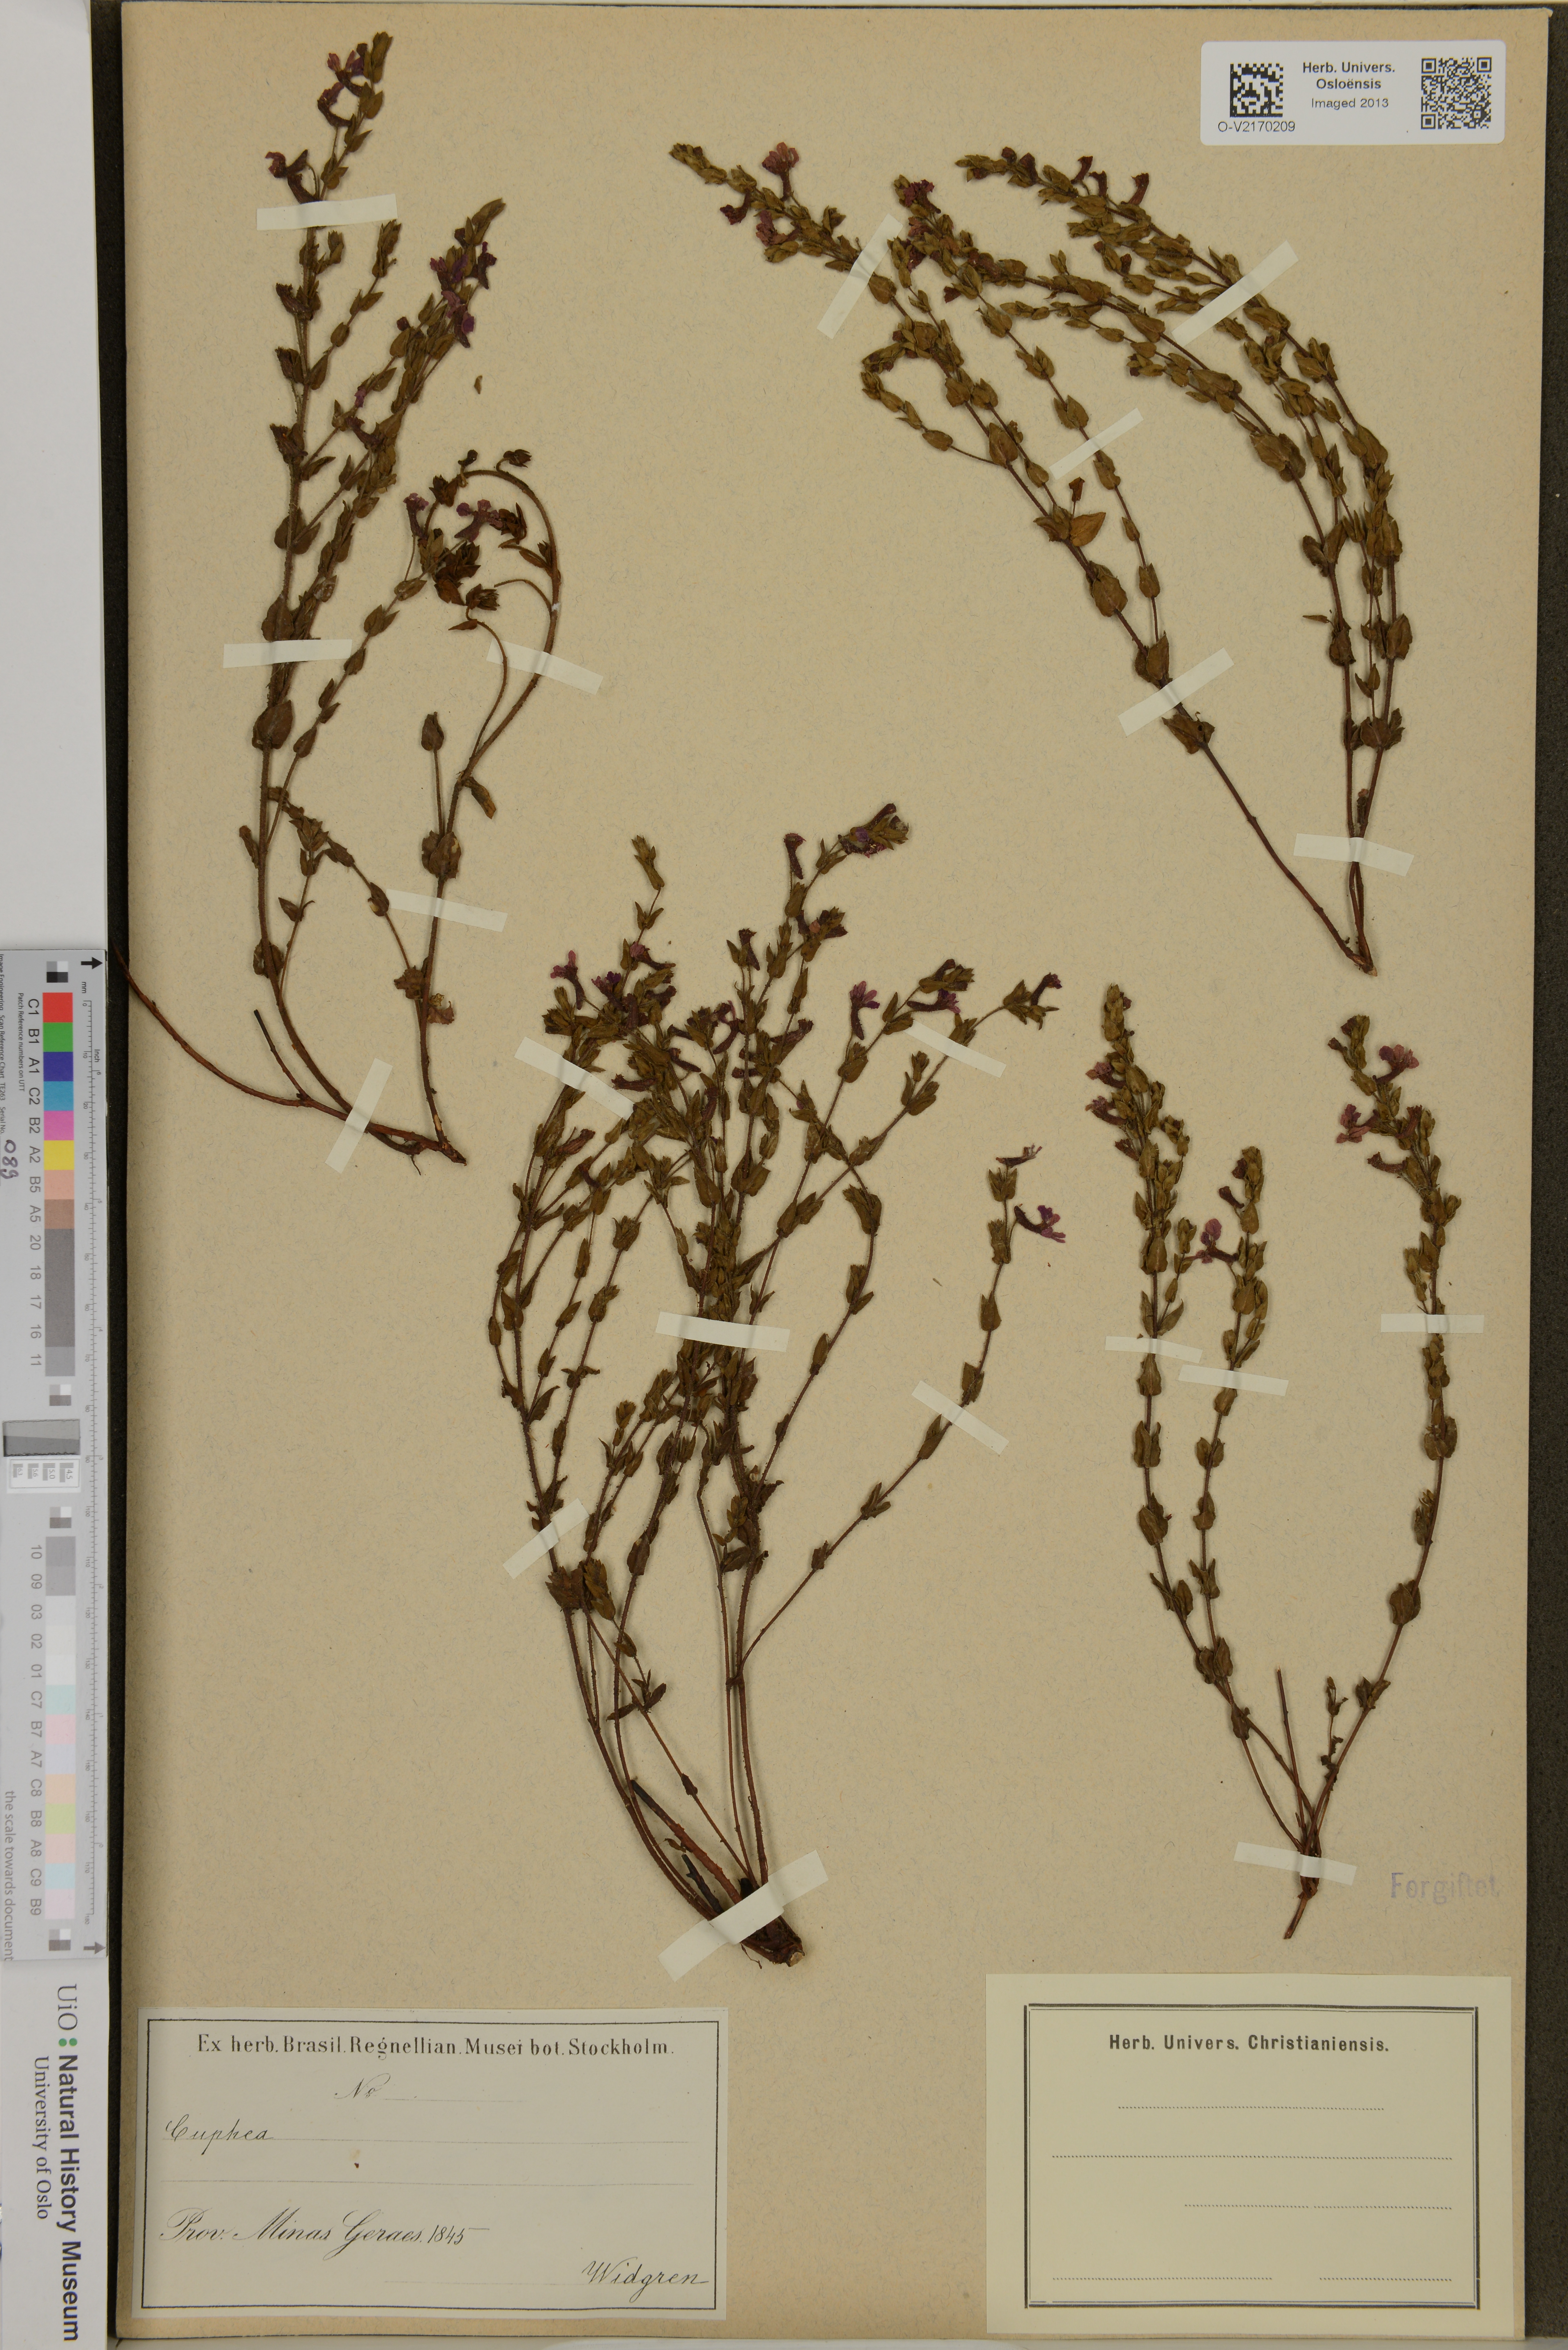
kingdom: Plantae
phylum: Tracheophyta
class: Magnoliopsida
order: Myrtales
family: Lythraceae
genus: Cuphea
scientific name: Cuphea
